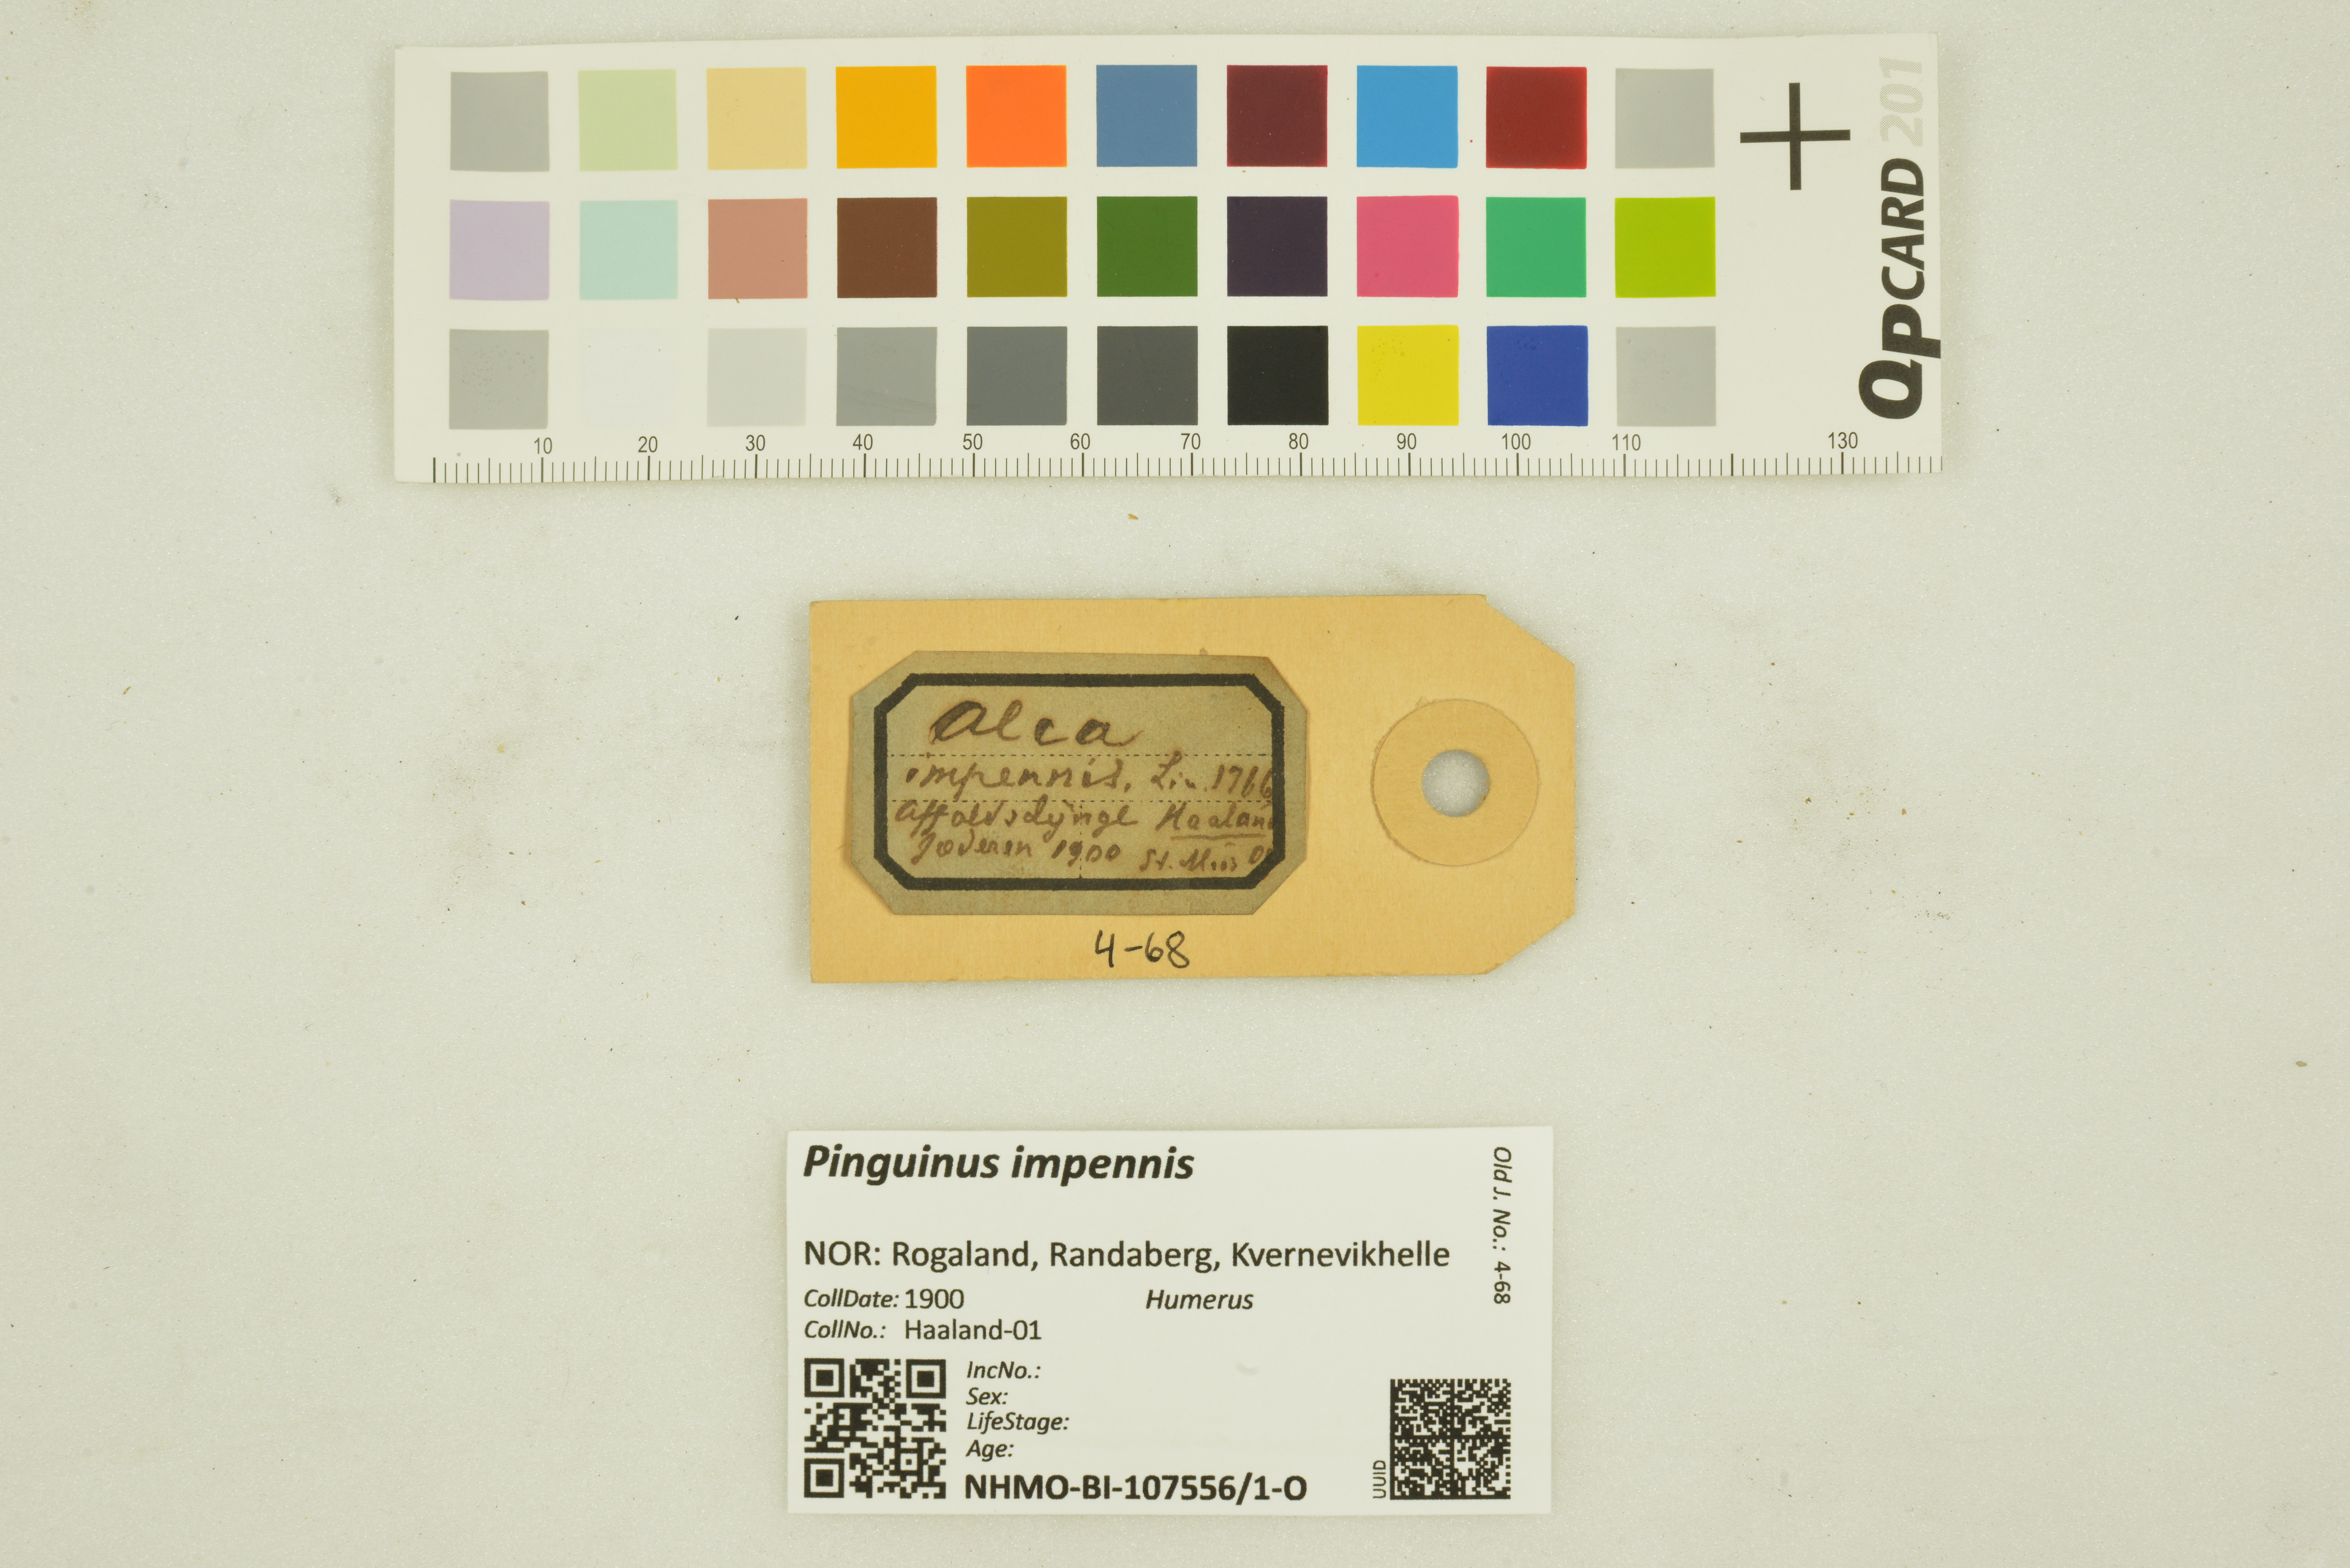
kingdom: Animalia
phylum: Chordata
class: Aves
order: Charadriiformes
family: Alcidae
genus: Pinguinus
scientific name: Pinguinus impennis
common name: Great auk
